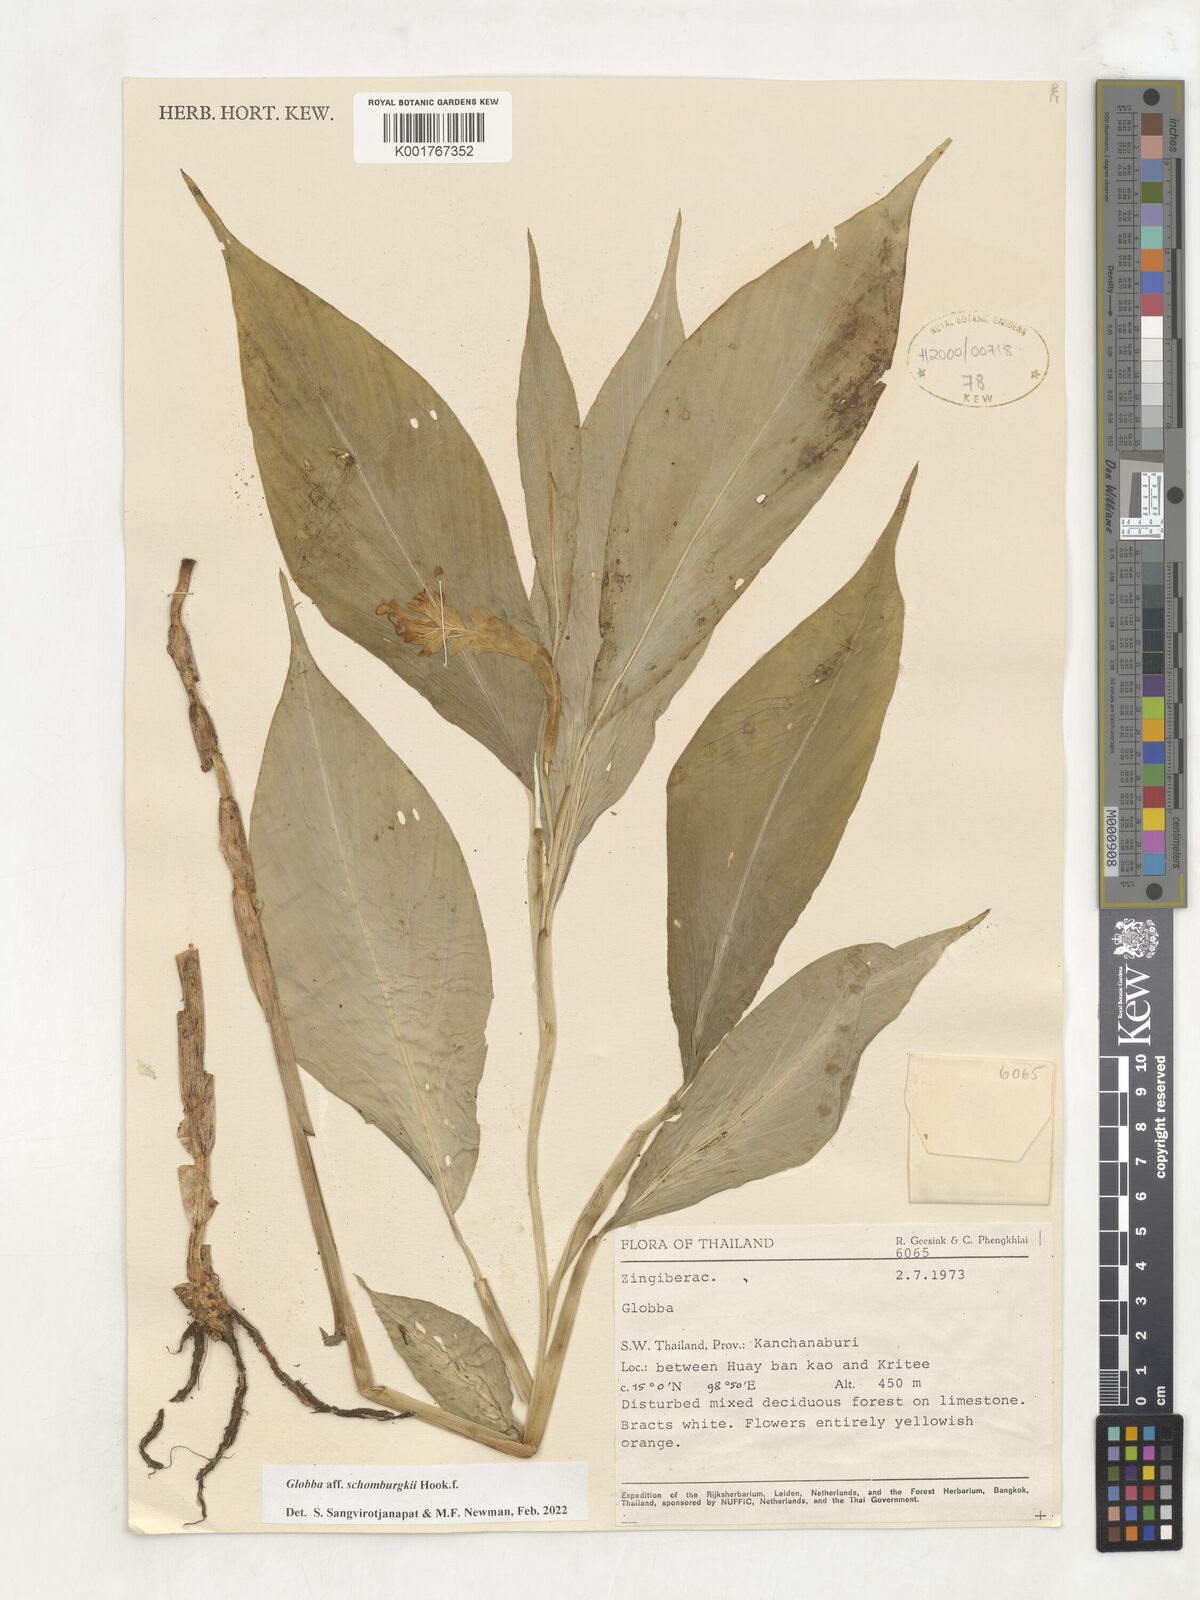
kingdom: Plantae
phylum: Tracheophyta
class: Liliopsida
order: Zingiberales
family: Zingiberaceae
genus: Globba
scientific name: Globba schomburgkii
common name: Dancing girl ginger
